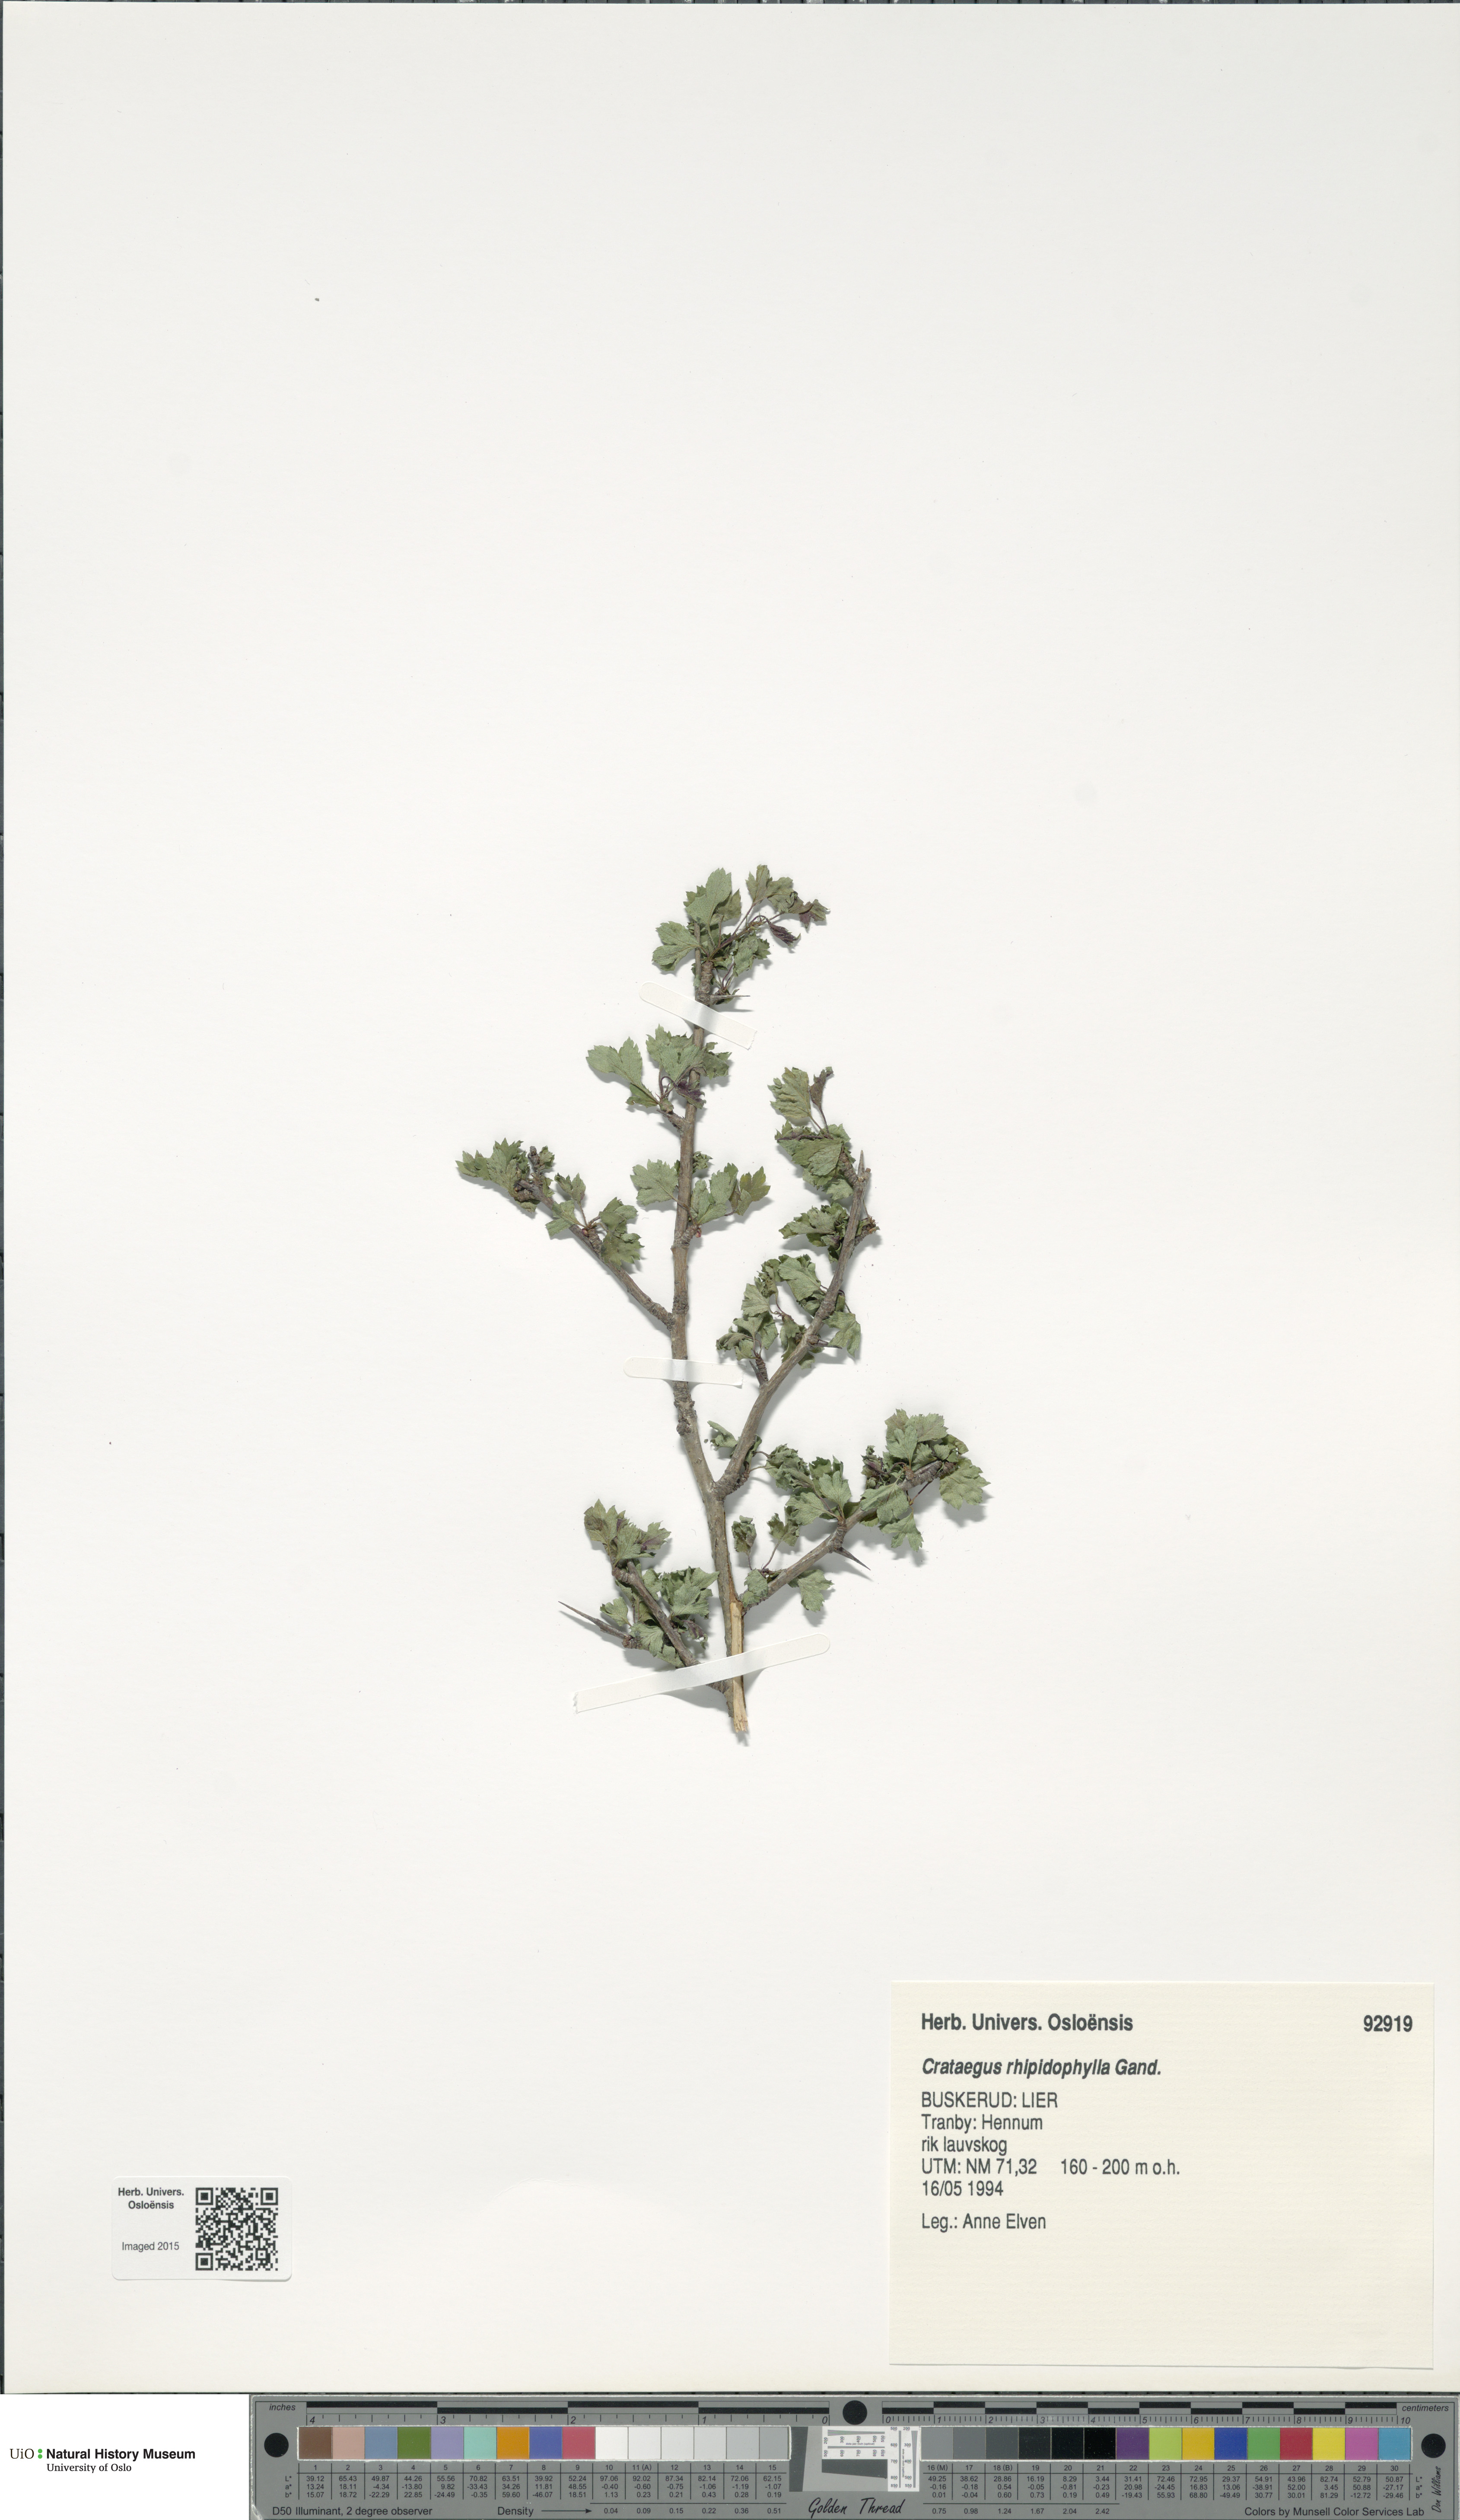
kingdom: Plantae
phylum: Tracheophyta
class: Magnoliopsida
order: Rosales
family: Rosaceae
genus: Crataegus
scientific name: Crataegus rhipidophylla
